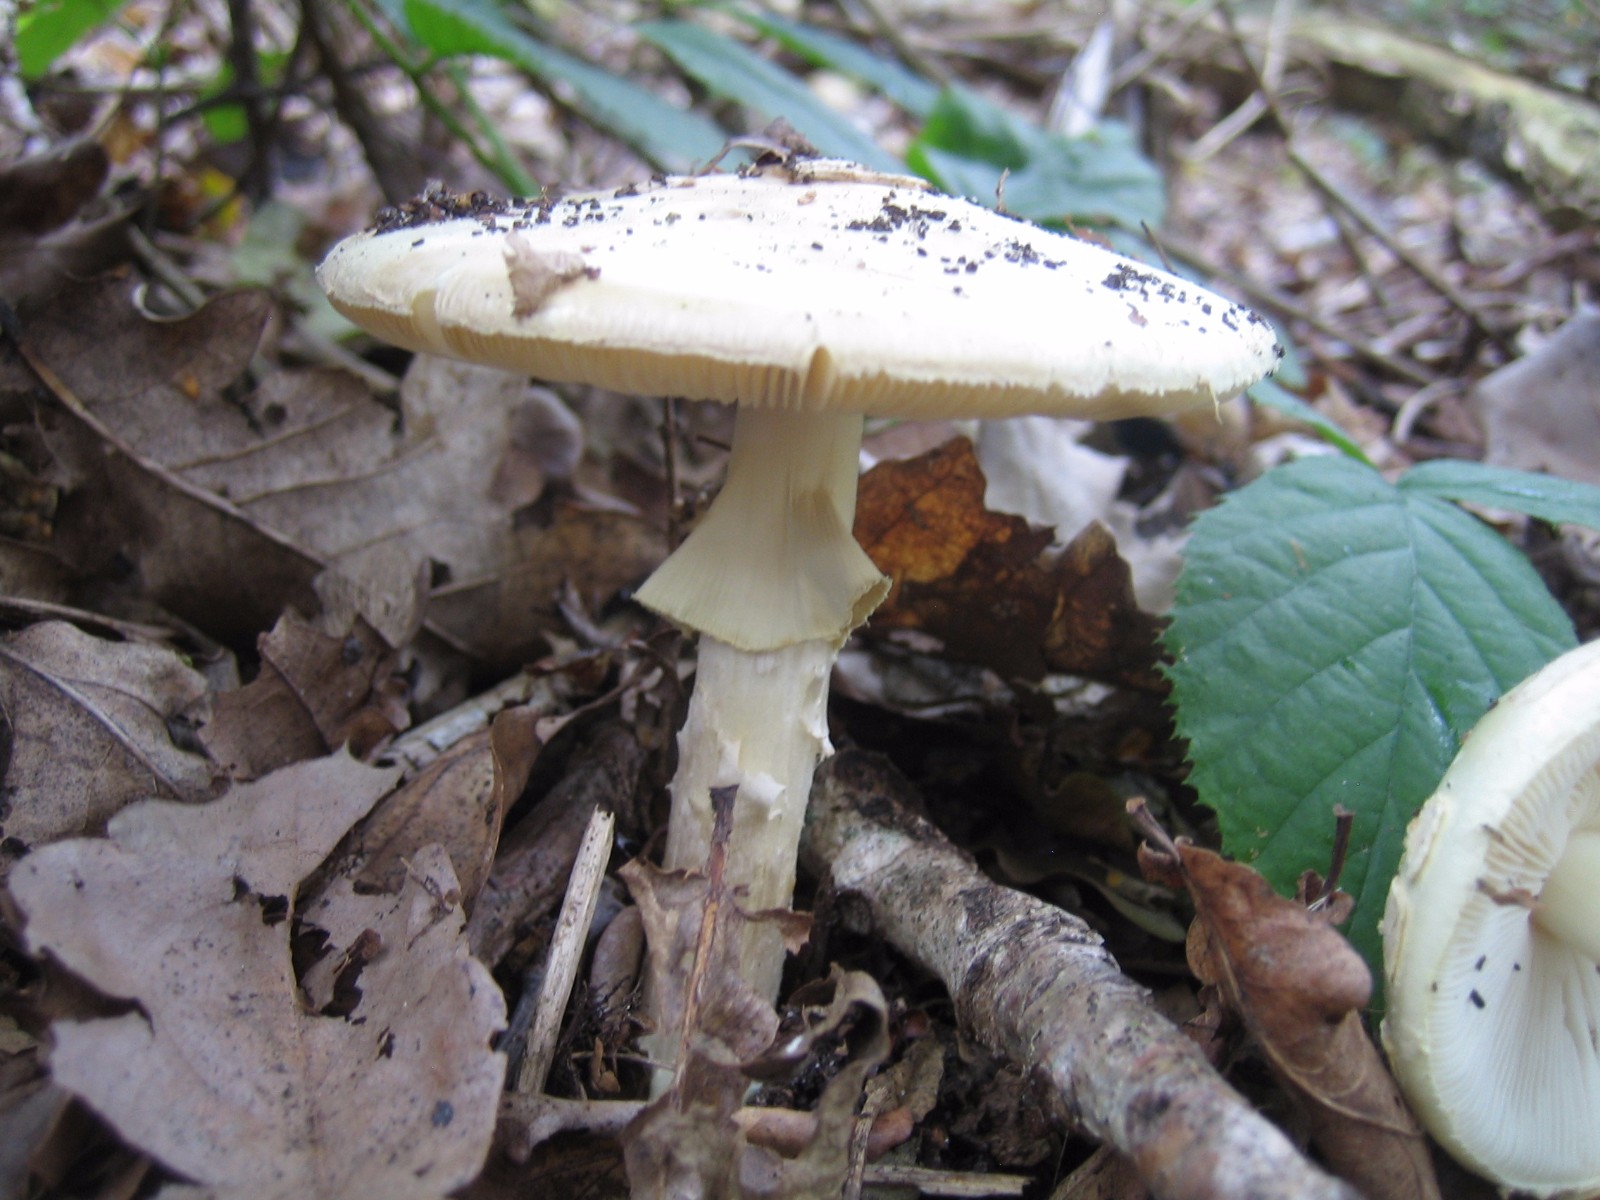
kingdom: Fungi
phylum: Basidiomycota
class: Agaricomycetes
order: Agaricales
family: Amanitaceae
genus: Amanita
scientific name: Amanita citrina
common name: kugleknoldet fluesvamp
